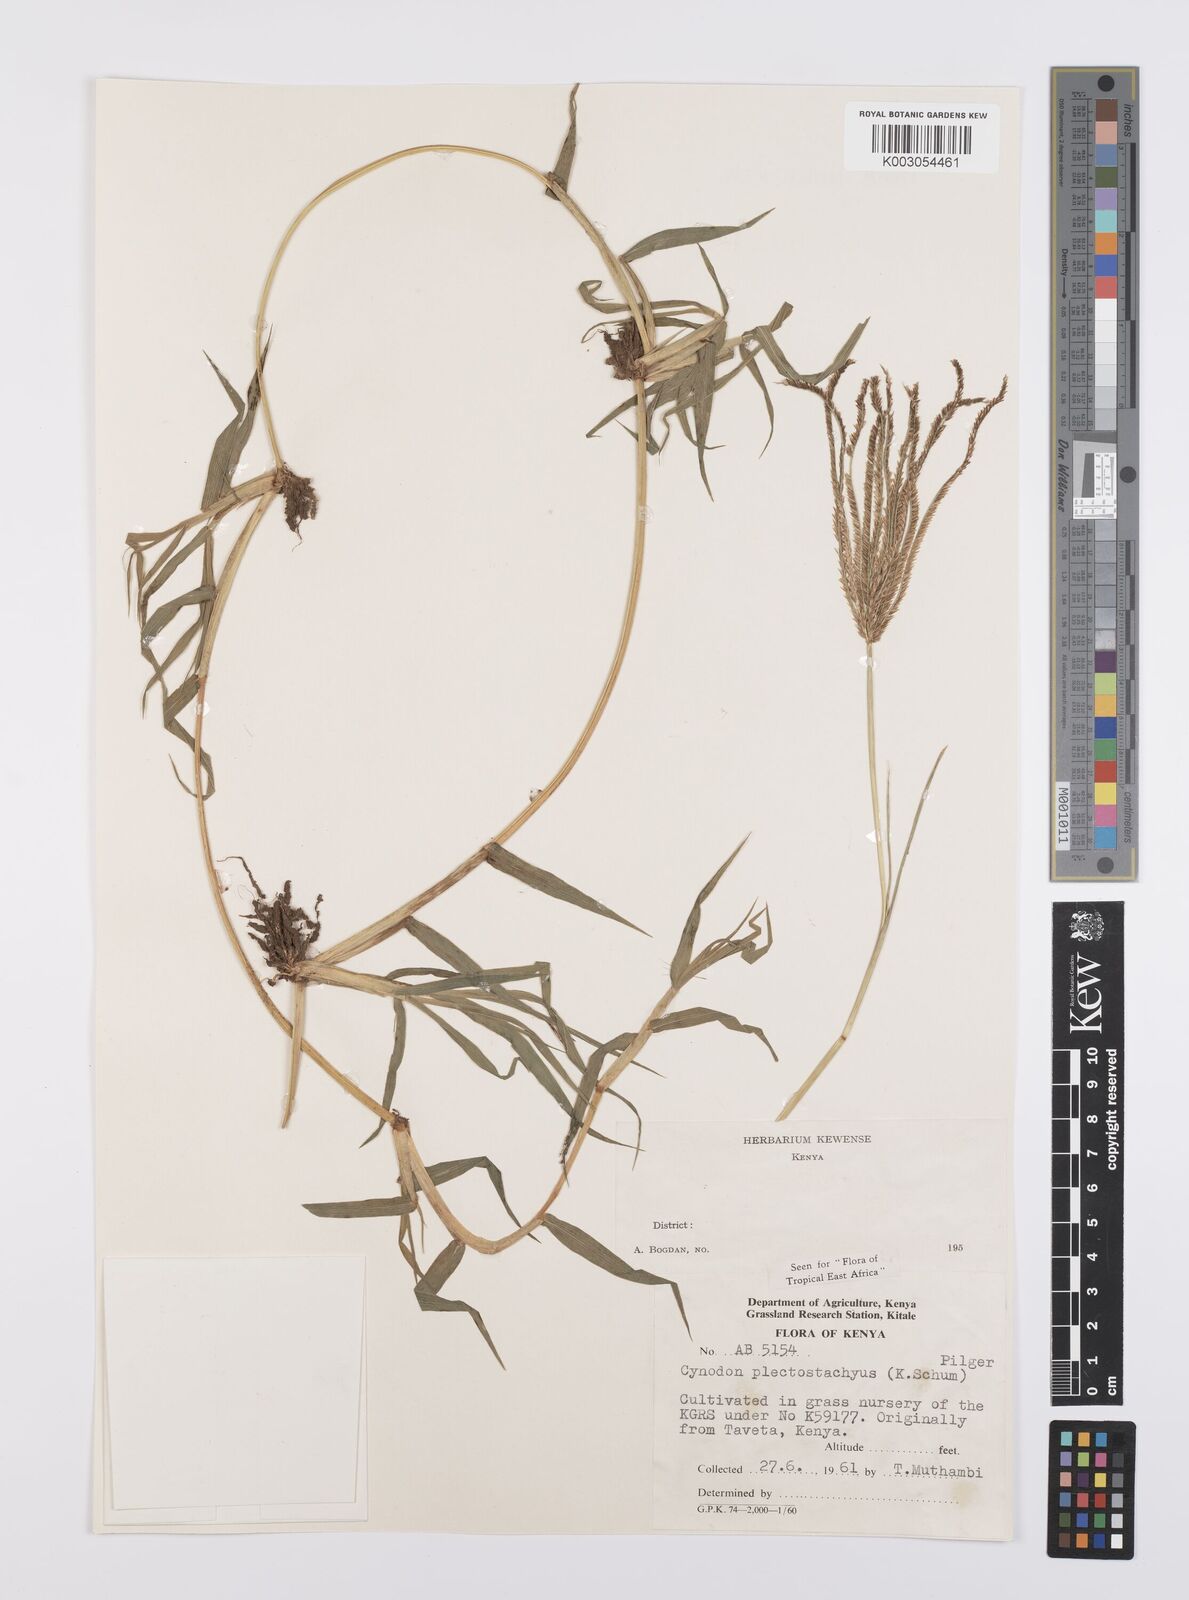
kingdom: Plantae
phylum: Tracheophyta
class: Liliopsida
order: Poales
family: Poaceae
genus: Cynodon
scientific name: Cynodon plectostachyus
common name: Stargrass
